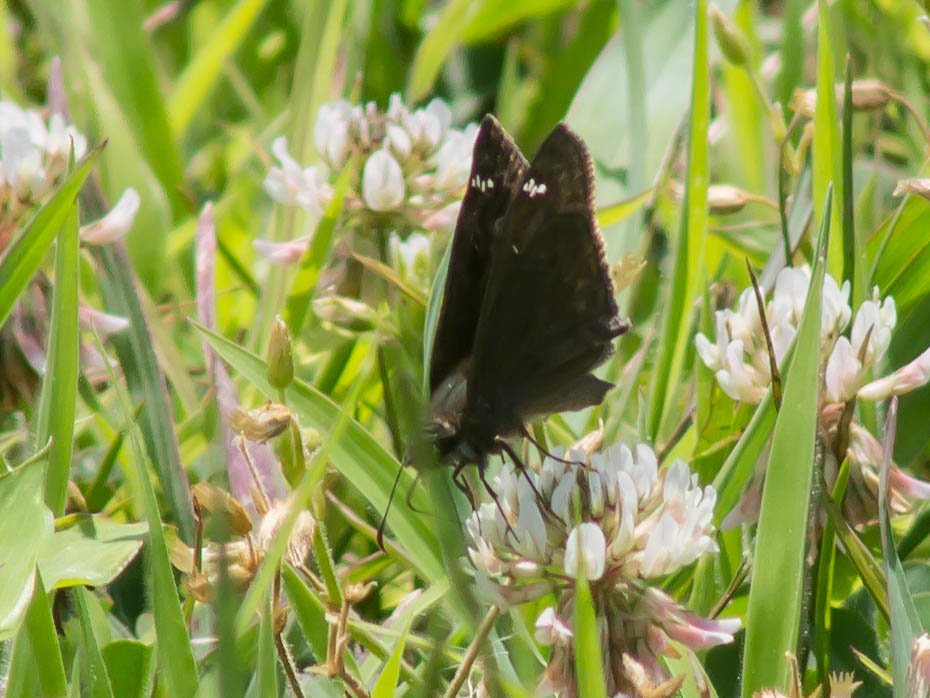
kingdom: Animalia
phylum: Arthropoda
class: Insecta
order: Lepidoptera
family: Hesperiidae
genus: Gesta
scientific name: Gesta
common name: Horace's Duskywing
